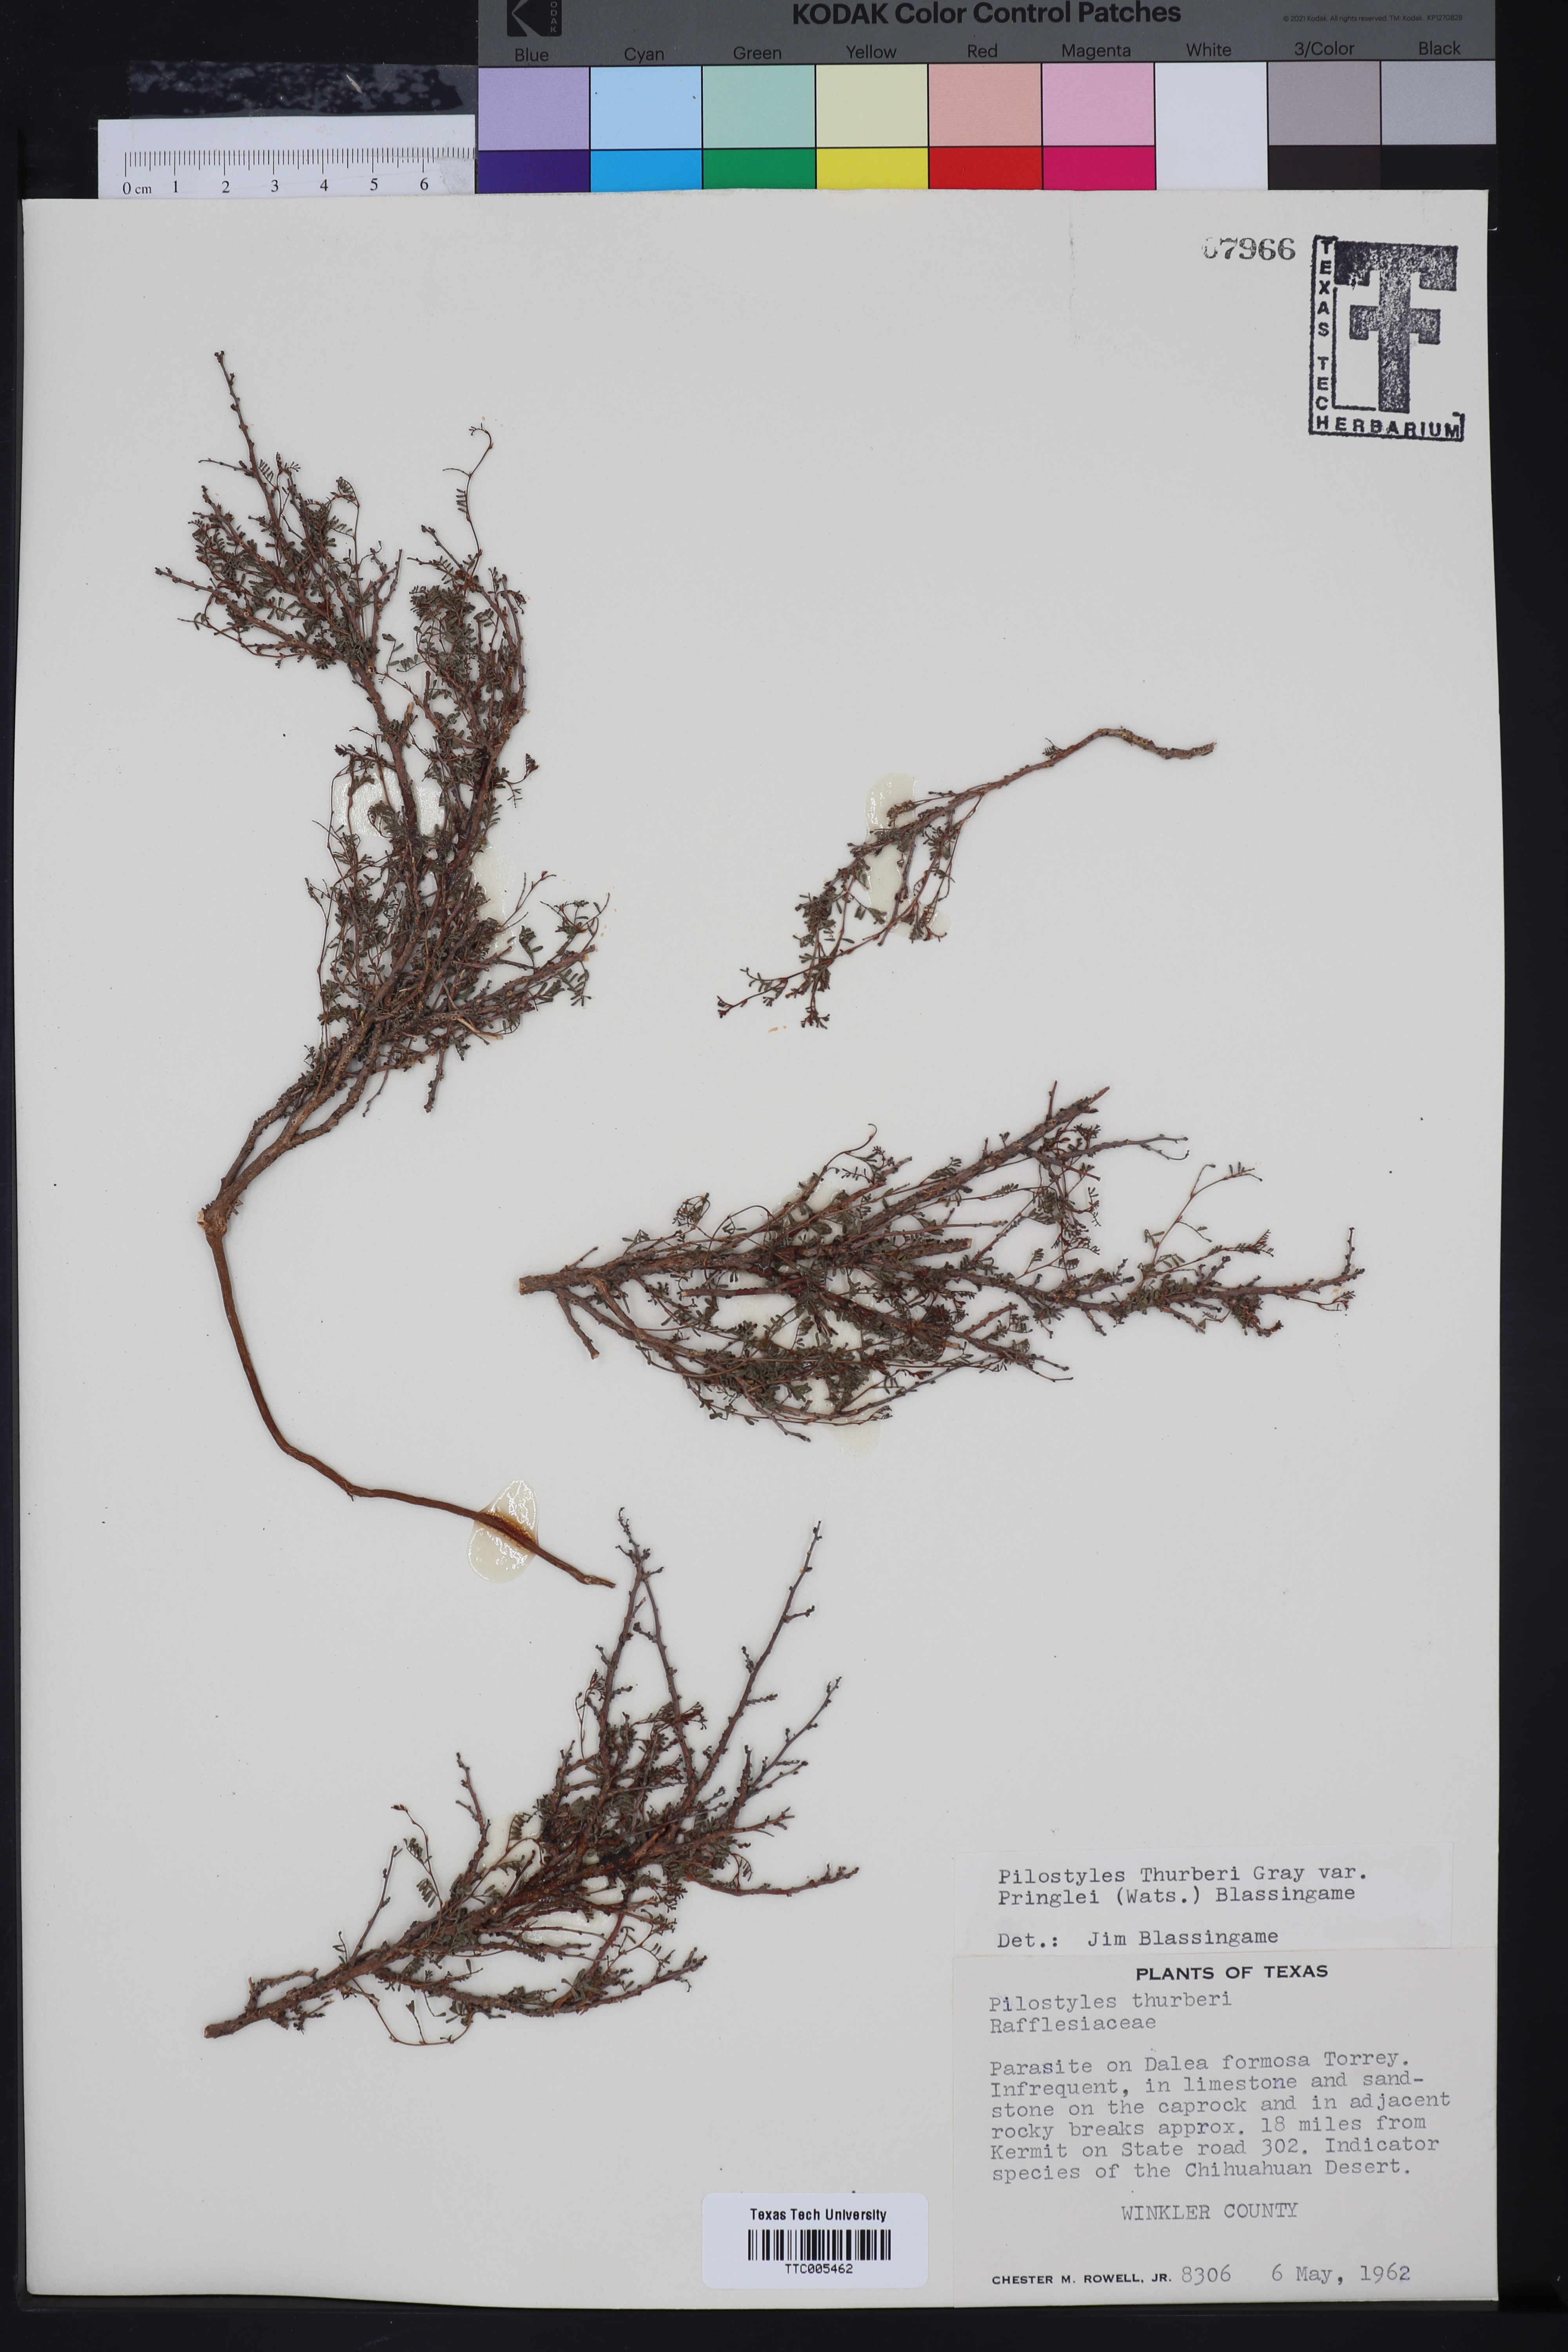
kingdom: Plantae
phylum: Tracheophyta
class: Magnoliopsida
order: Cucurbitales
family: Apodanthaceae
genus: Pilostyles
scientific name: Pilostyles thurberi
